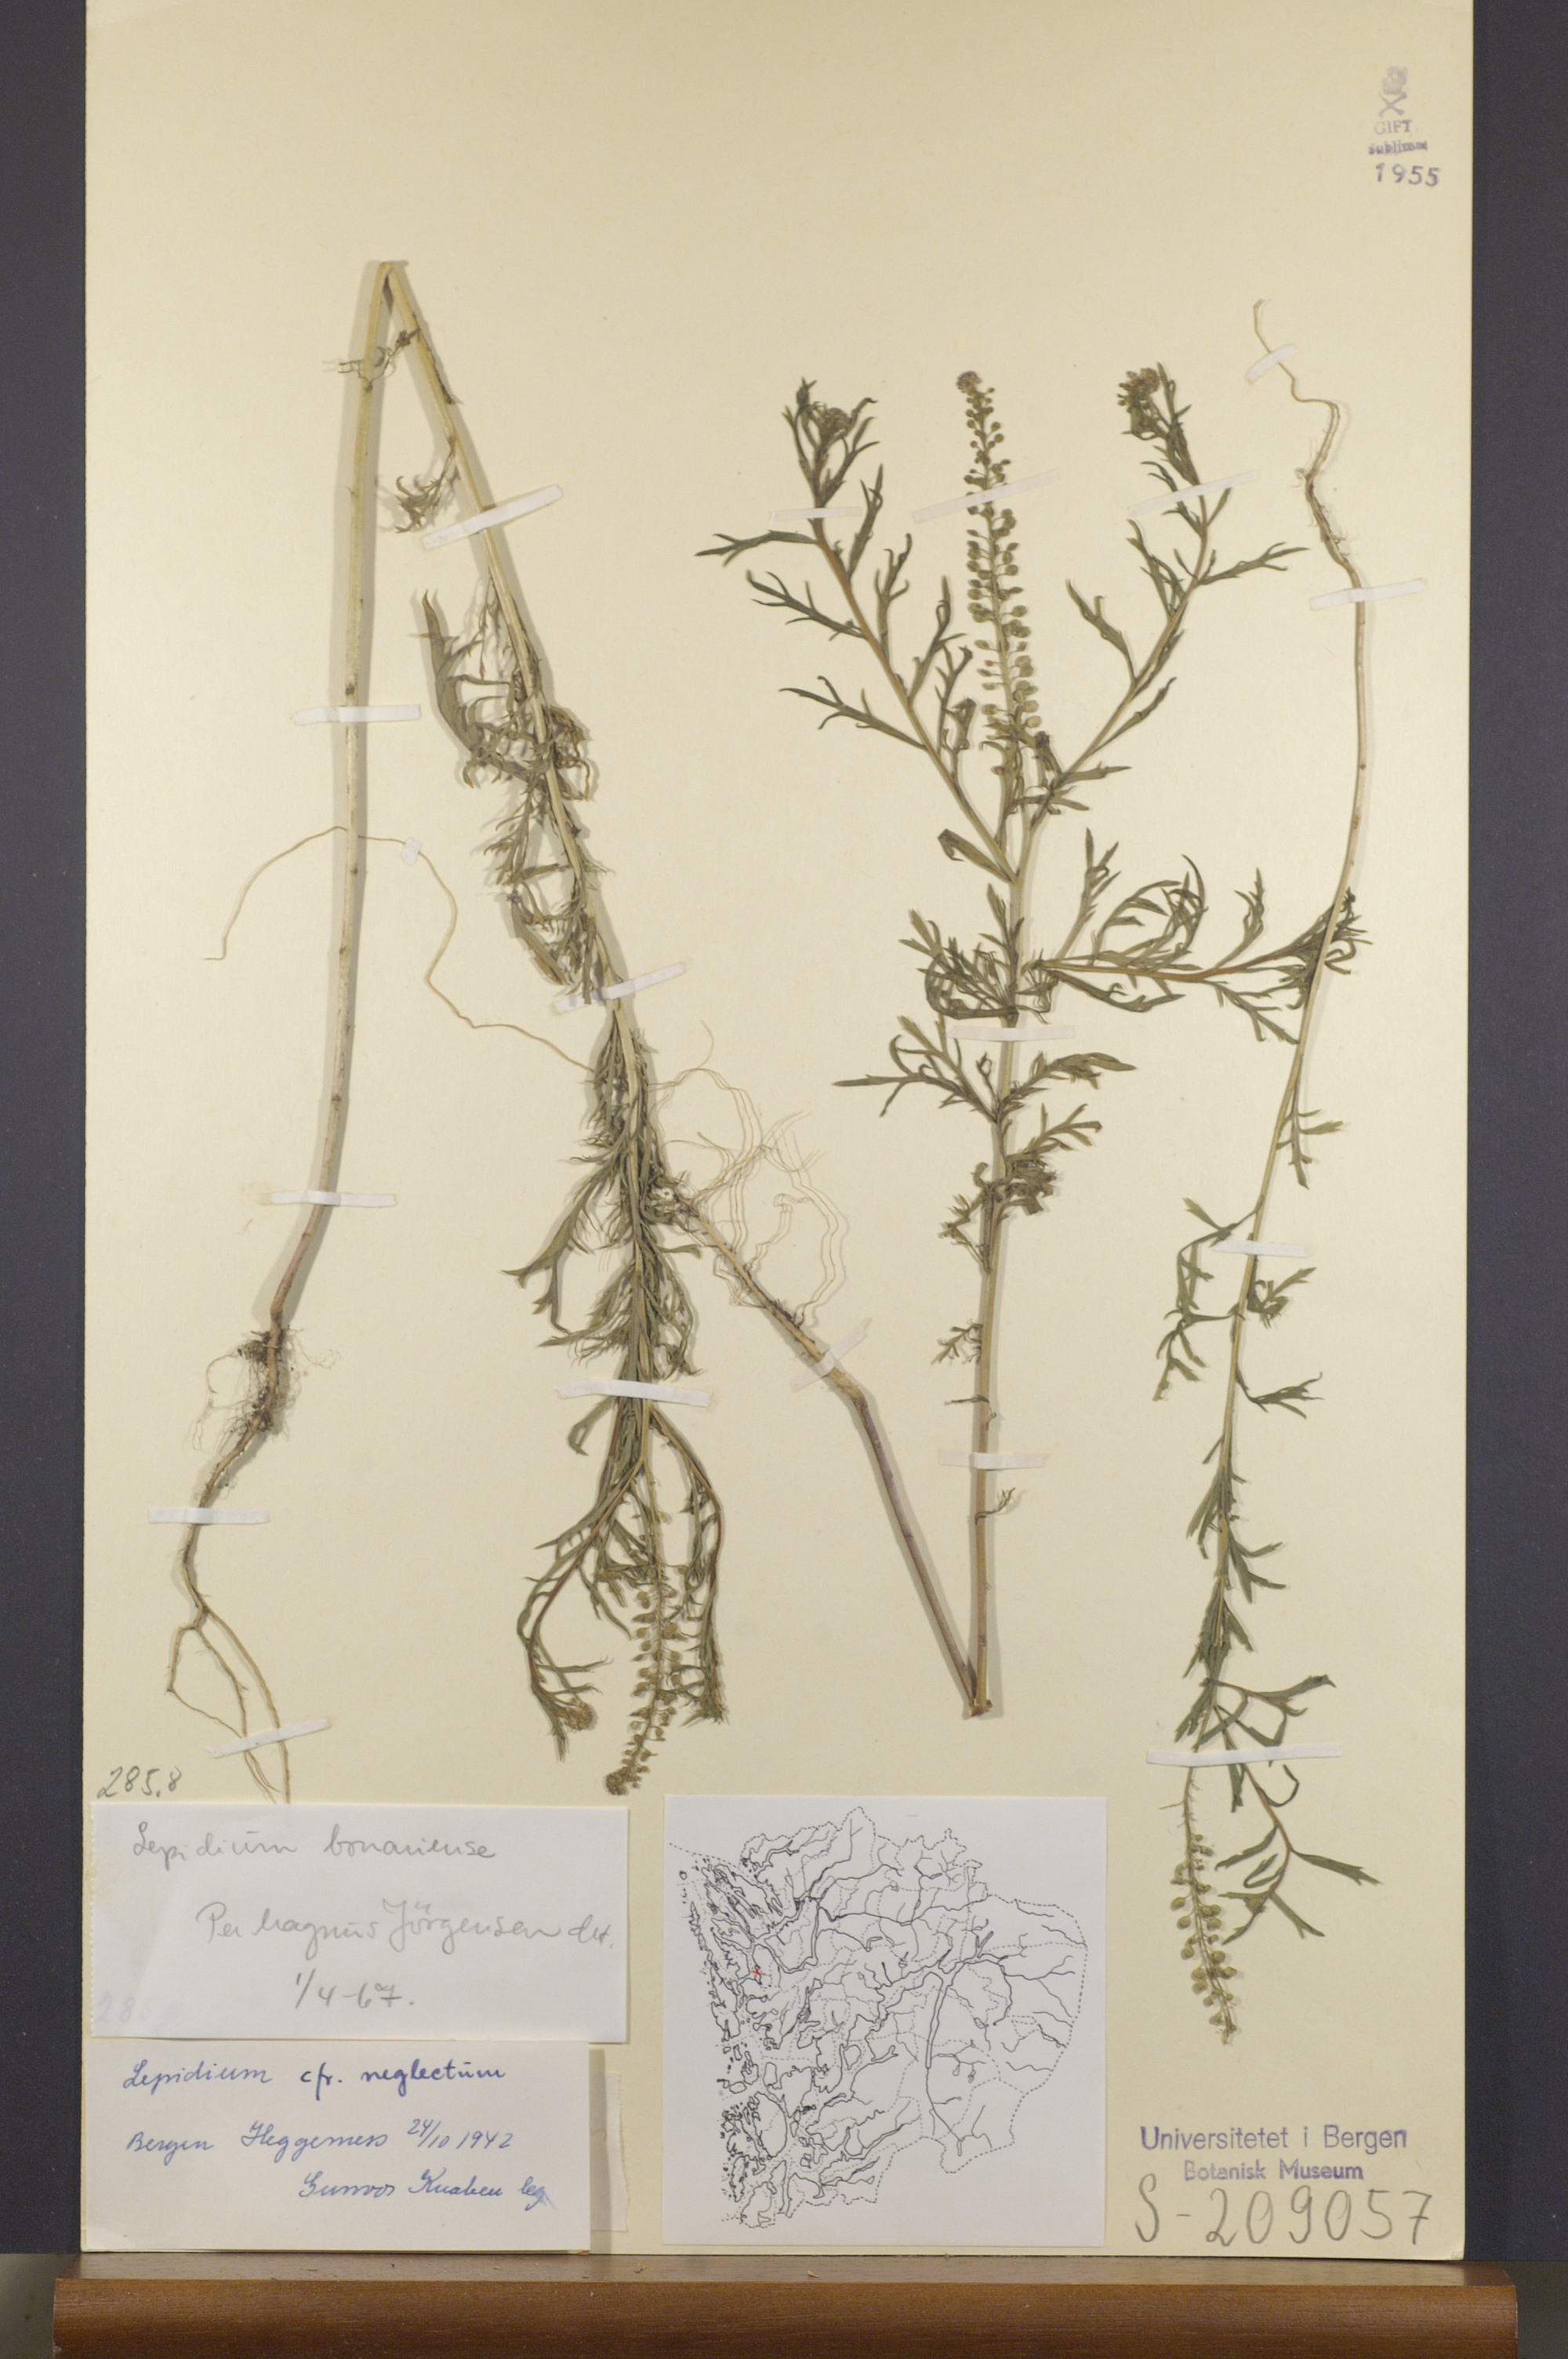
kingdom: Plantae
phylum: Tracheophyta
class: Magnoliopsida
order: Brassicales
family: Brassicaceae
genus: Lepidium
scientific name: Lepidium bonariense
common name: Argentine pepperwort
